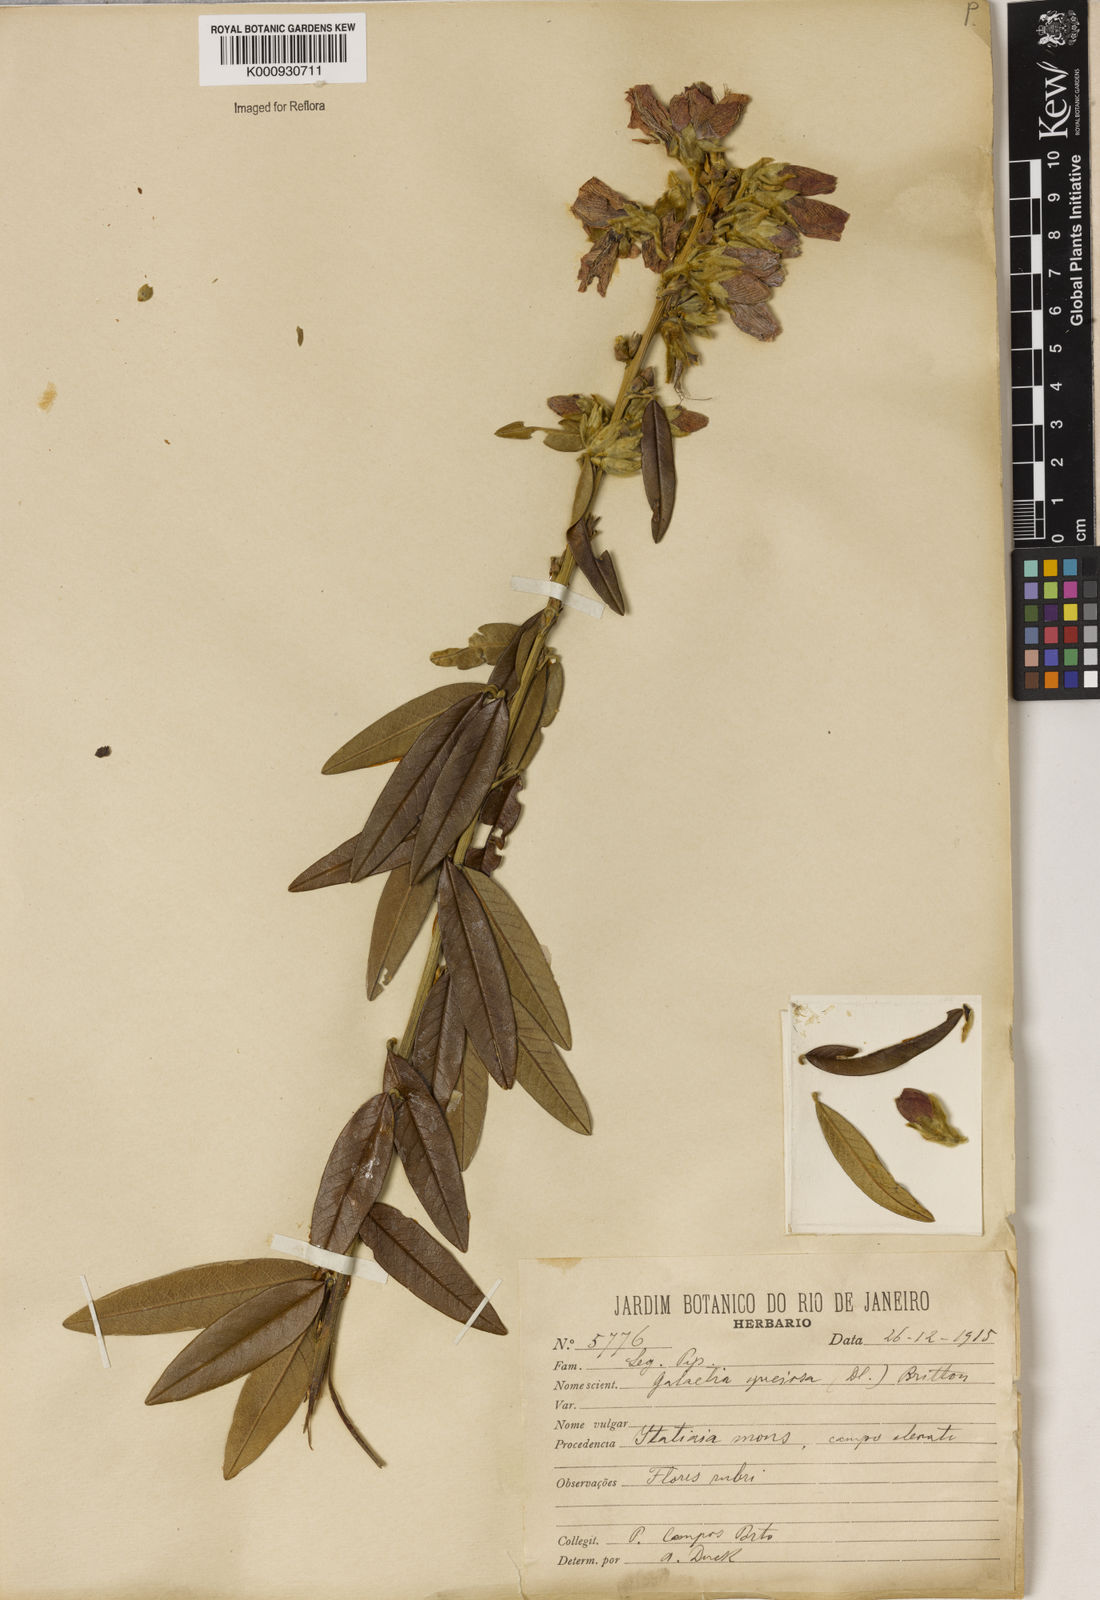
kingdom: Plantae
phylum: Tracheophyta
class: Magnoliopsida
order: Lamiales
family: Lamiaceae
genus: Coleus
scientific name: Coleus barbatus
